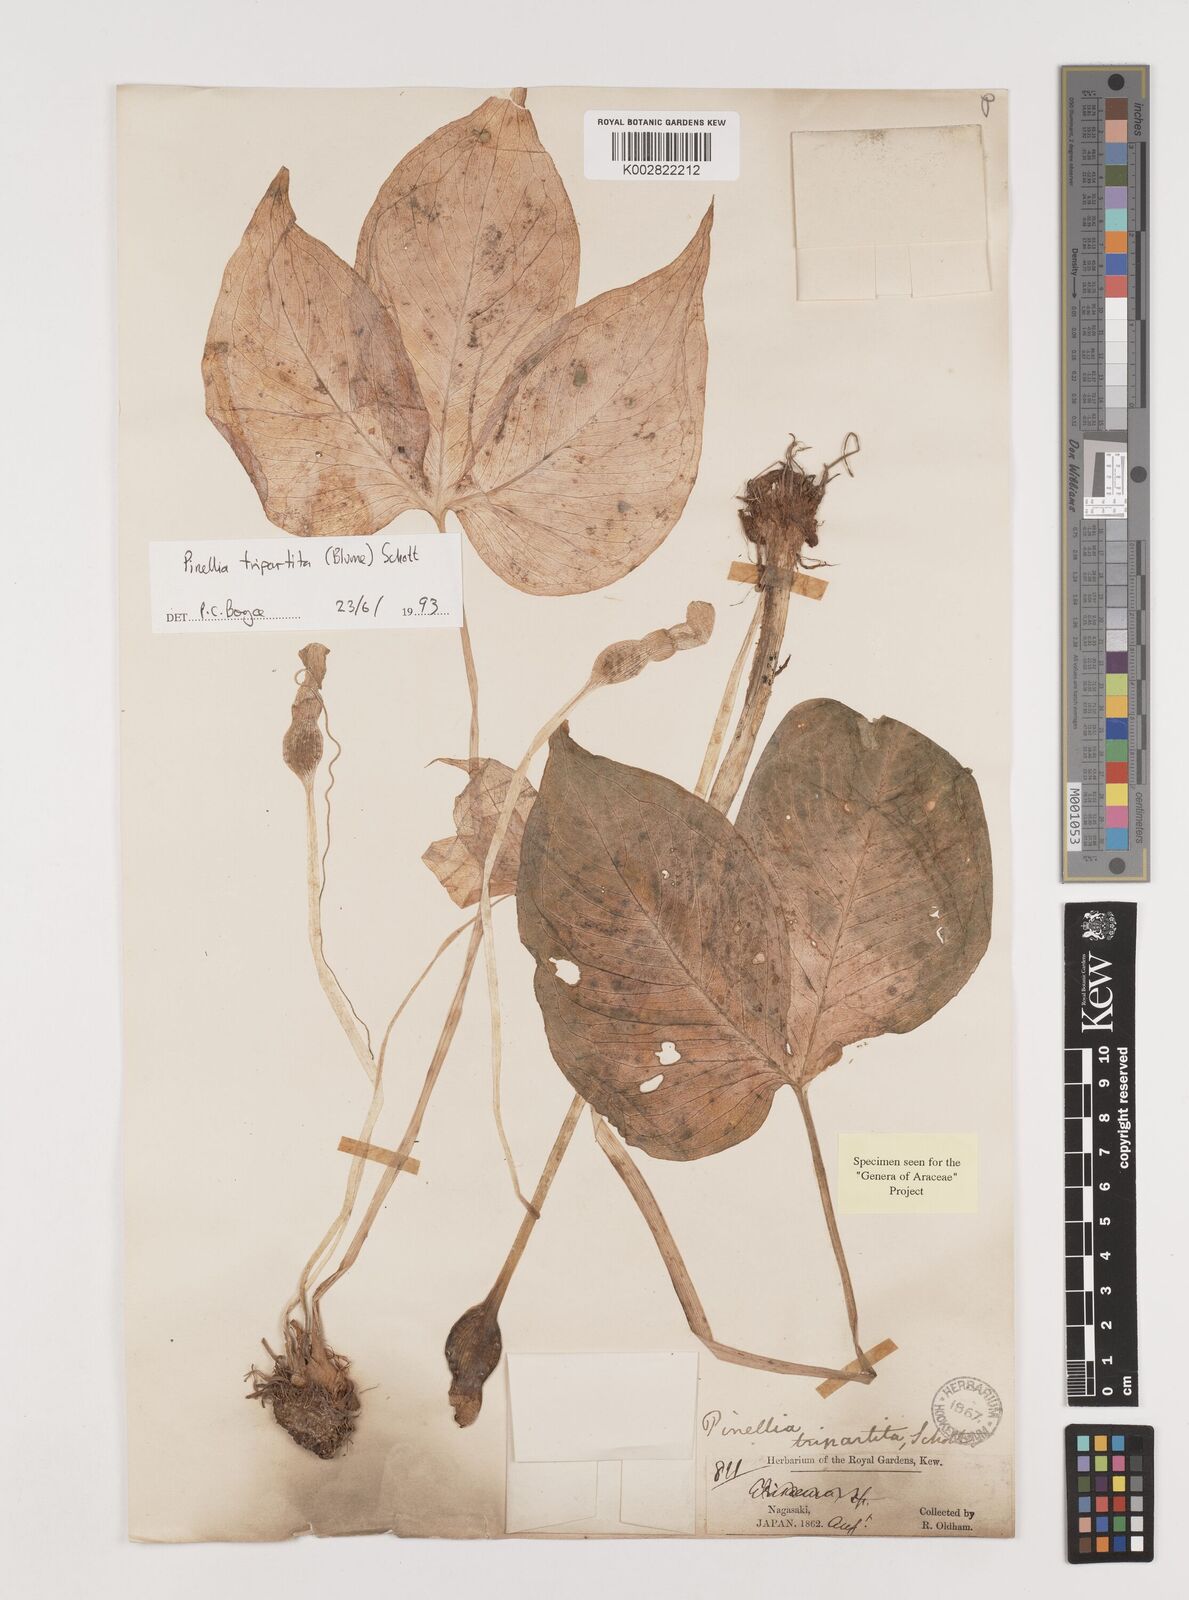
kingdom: Plantae
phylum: Tracheophyta
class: Liliopsida
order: Alismatales
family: Araceae
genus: Pinellia
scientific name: Pinellia tripartita
